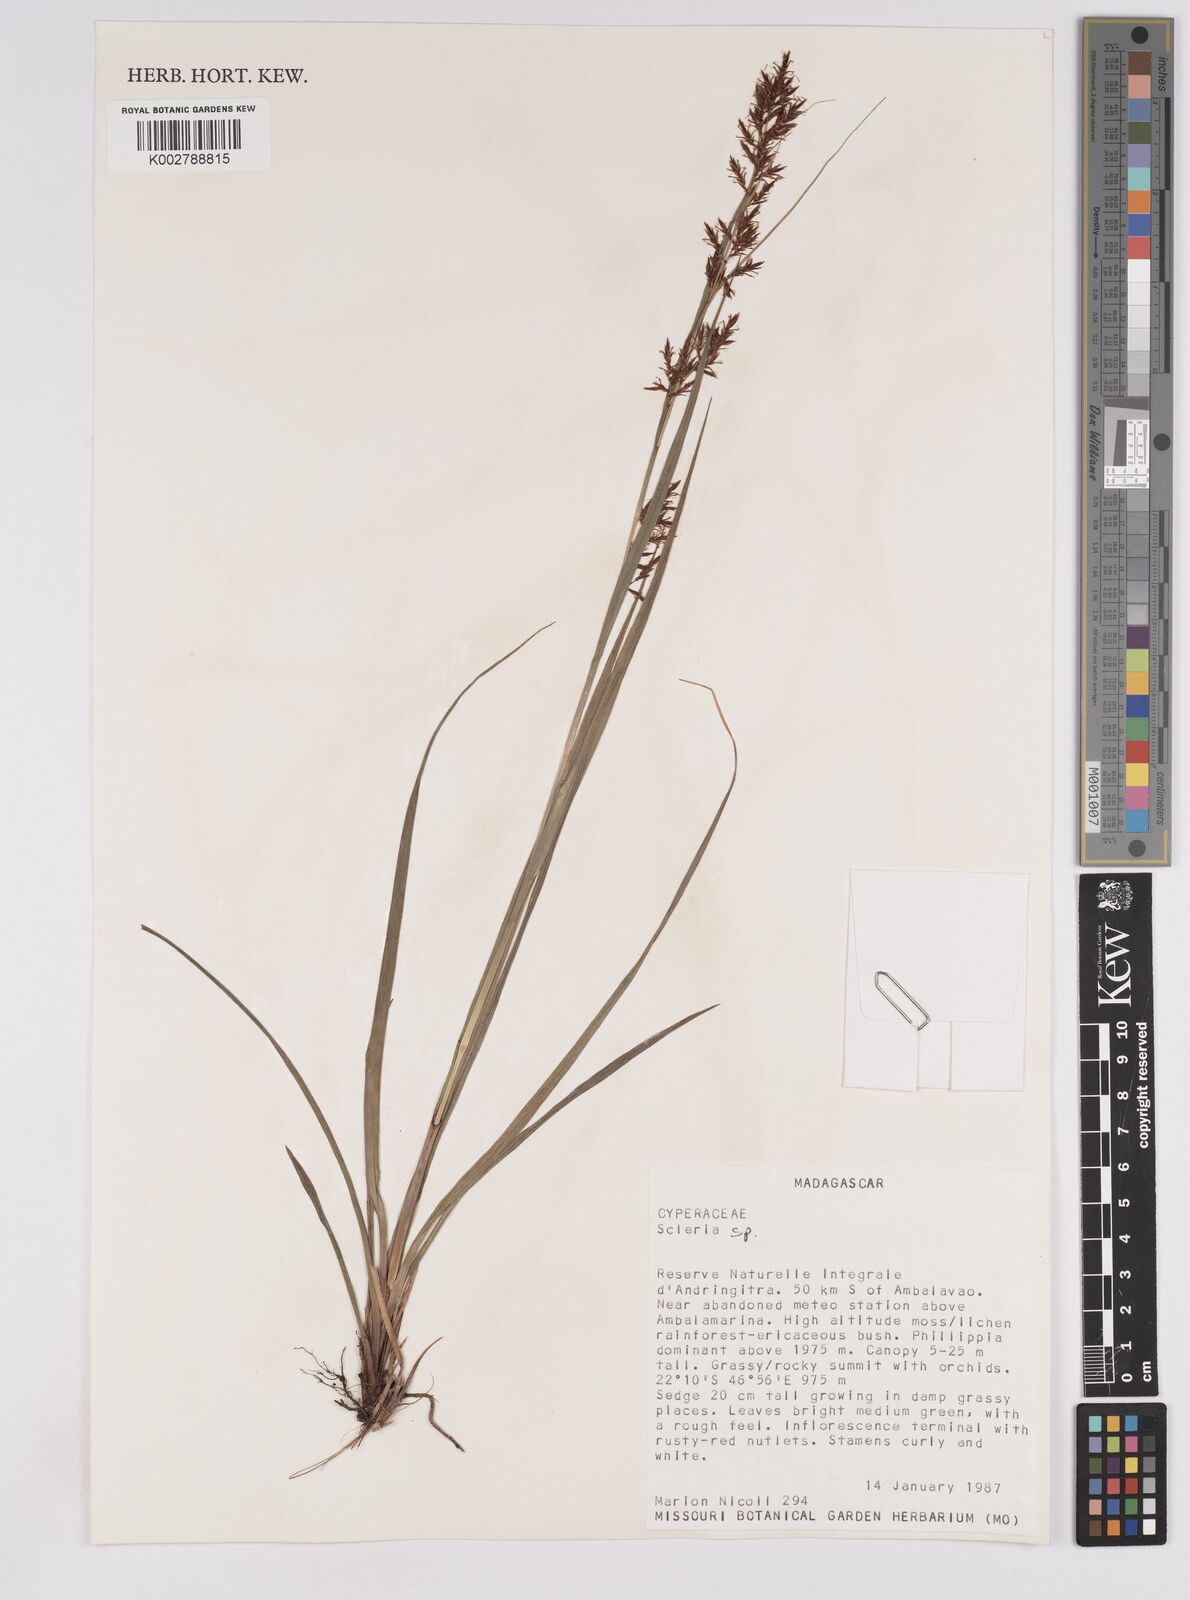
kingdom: Plantae
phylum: Tracheophyta
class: Liliopsida
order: Poales
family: Cyperaceae
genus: Scleria
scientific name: Scleria lagoensis
